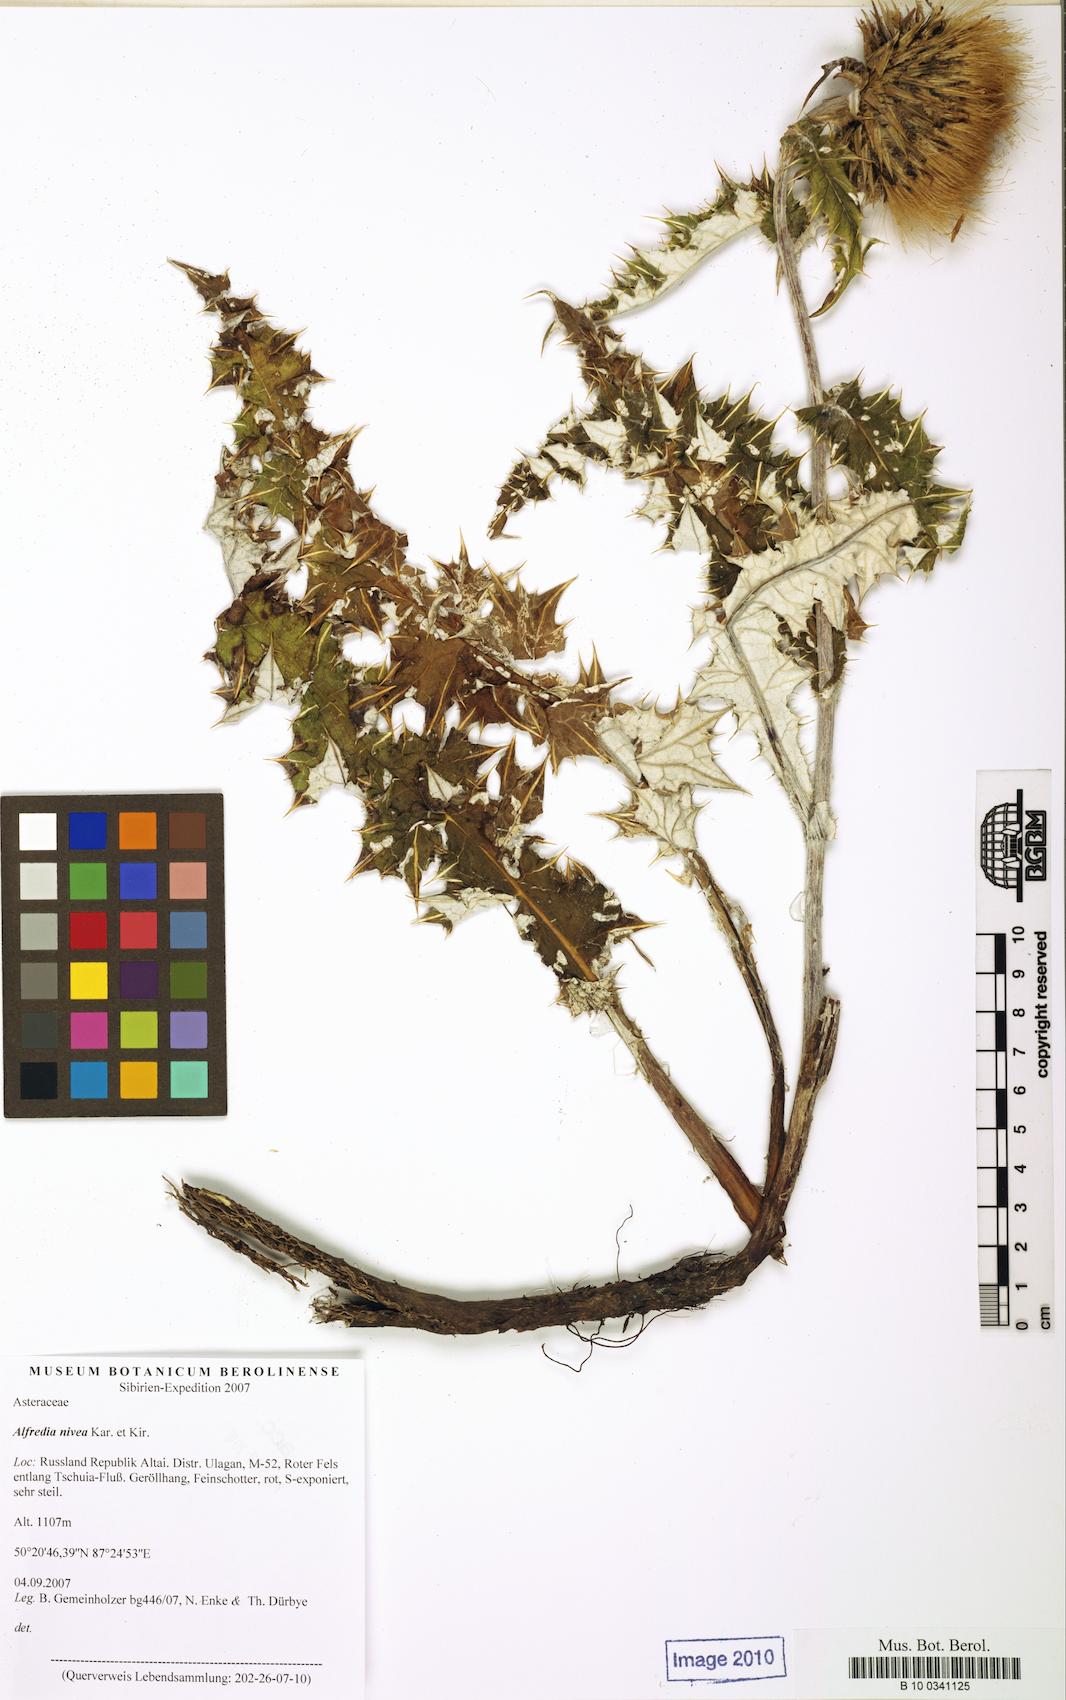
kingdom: Plantae
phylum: Tracheophyta
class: Magnoliopsida
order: Asterales
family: Asteraceae
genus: Alfredia
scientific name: Alfredia nivea
